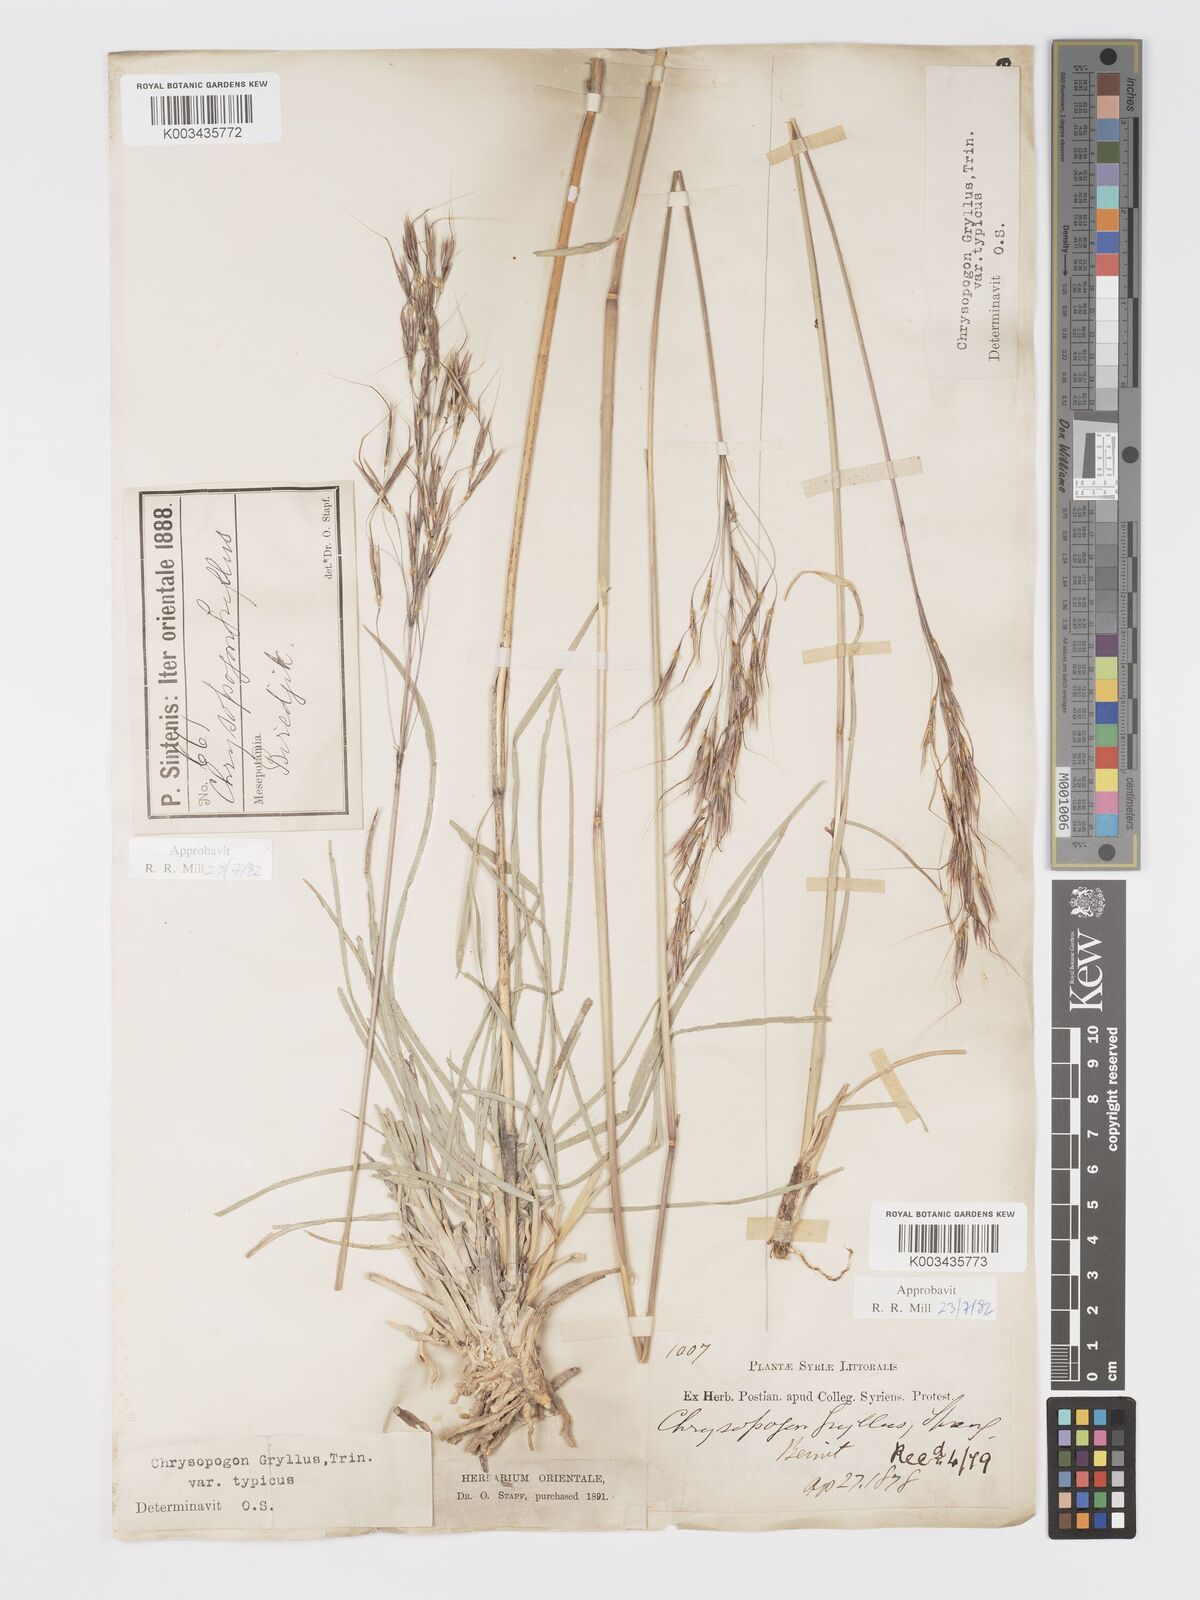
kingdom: Plantae
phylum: Tracheophyta
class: Liliopsida
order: Poales
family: Poaceae
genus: Chrysopogon
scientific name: Chrysopogon gryllus
